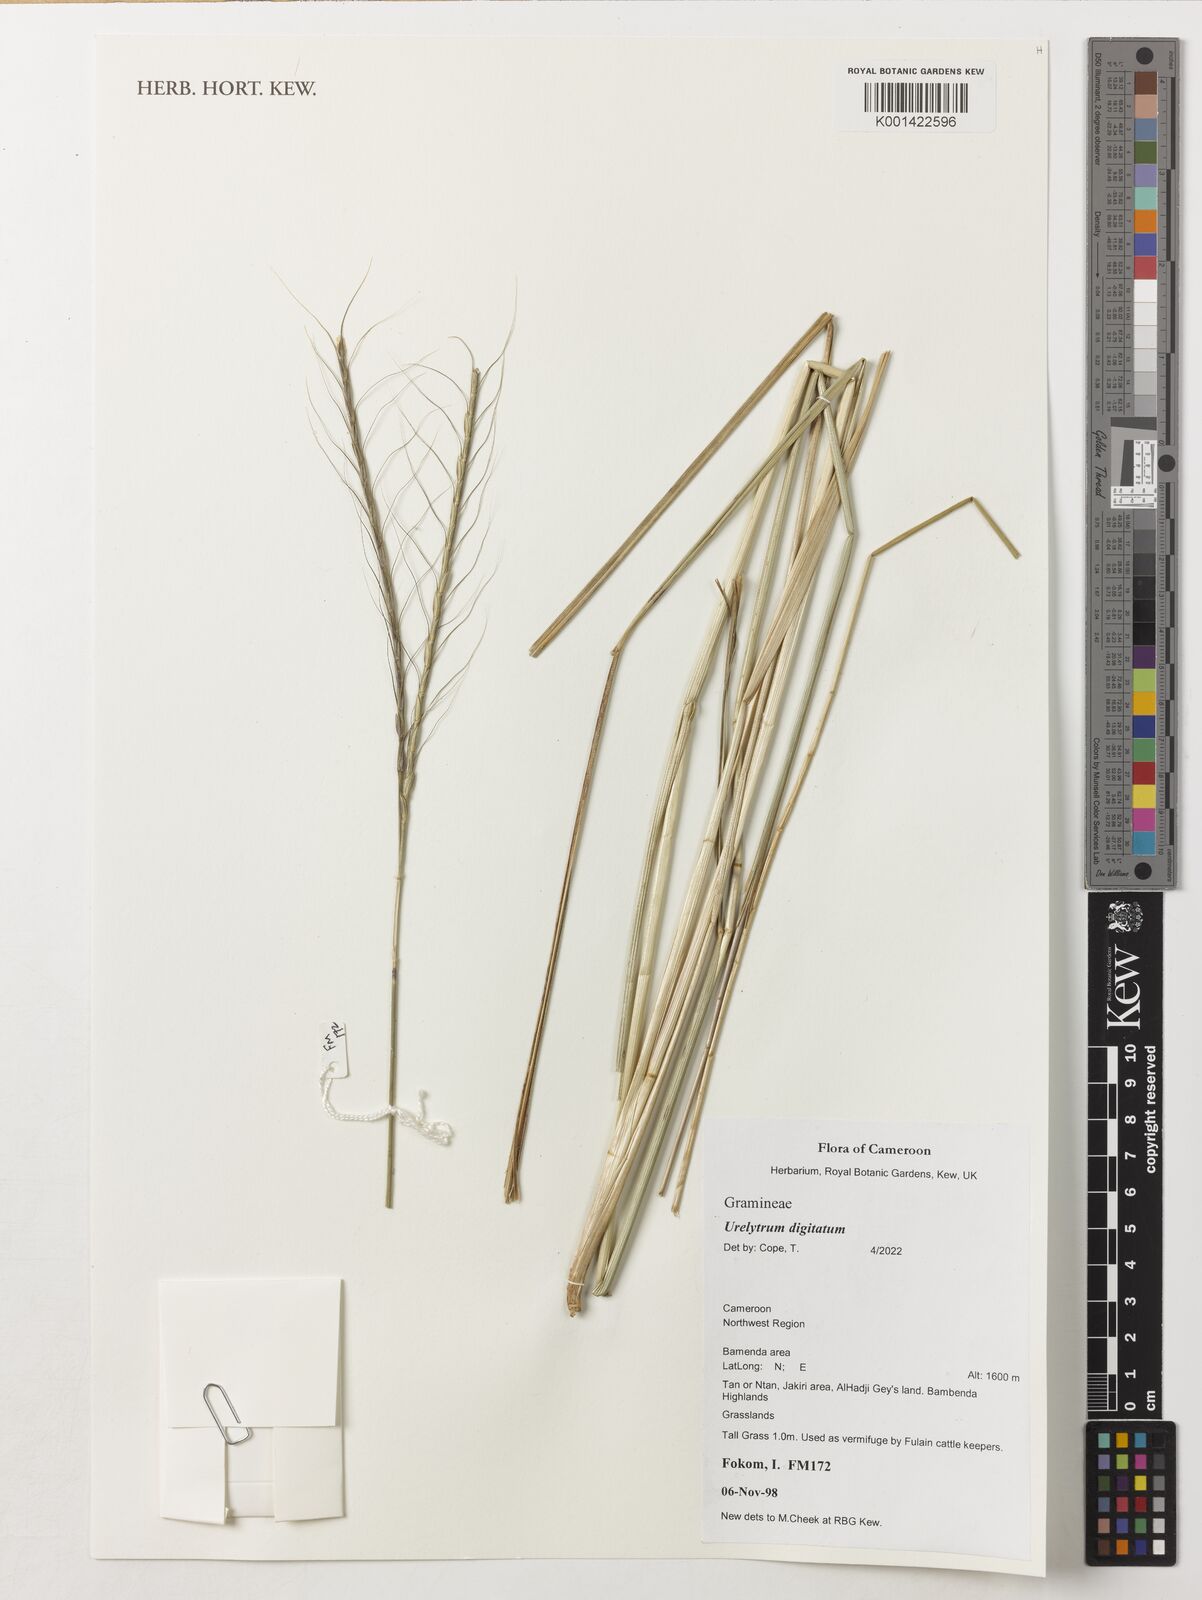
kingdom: Plantae
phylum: Tracheophyta
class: Liliopsida
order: Poales
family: Poaceae
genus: Urelytrum
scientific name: Urelytrum digitatum
